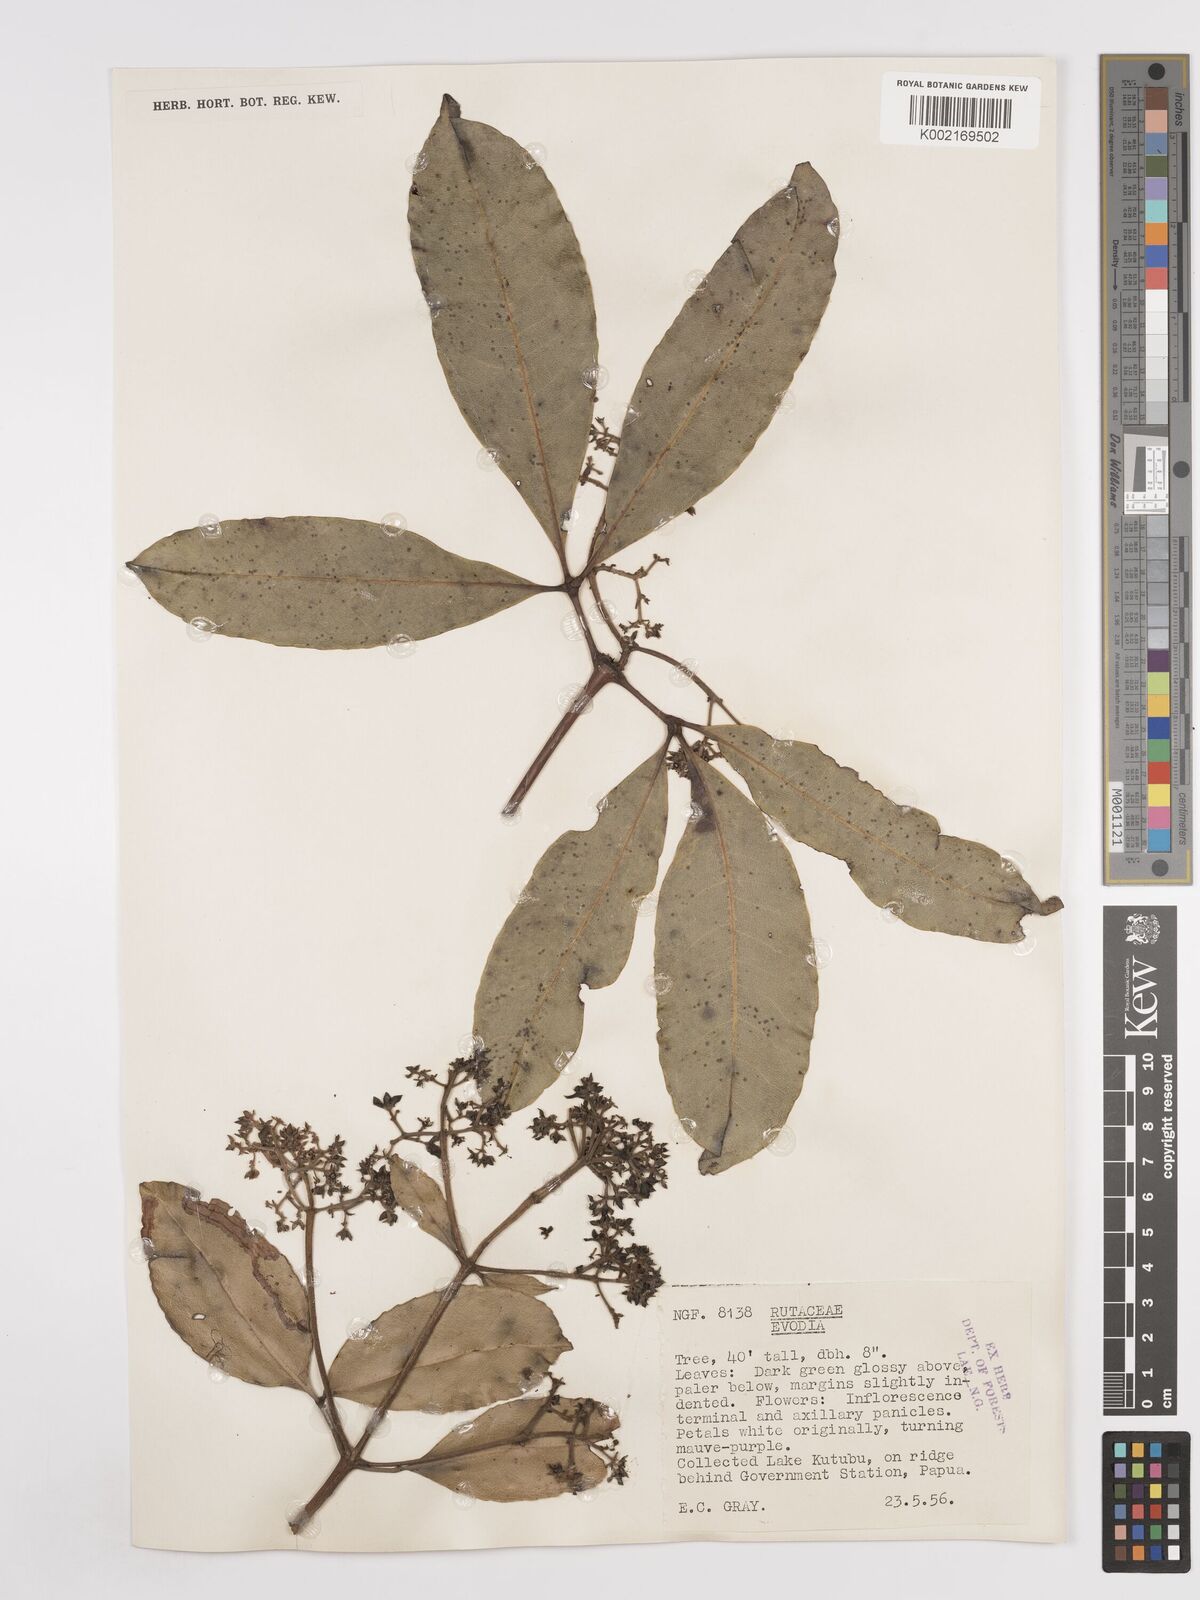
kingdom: Plantae
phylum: Tracheophyta
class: Magnoliopsida
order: Sapindales
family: Rutaceae
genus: Euodia
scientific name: Euodia
